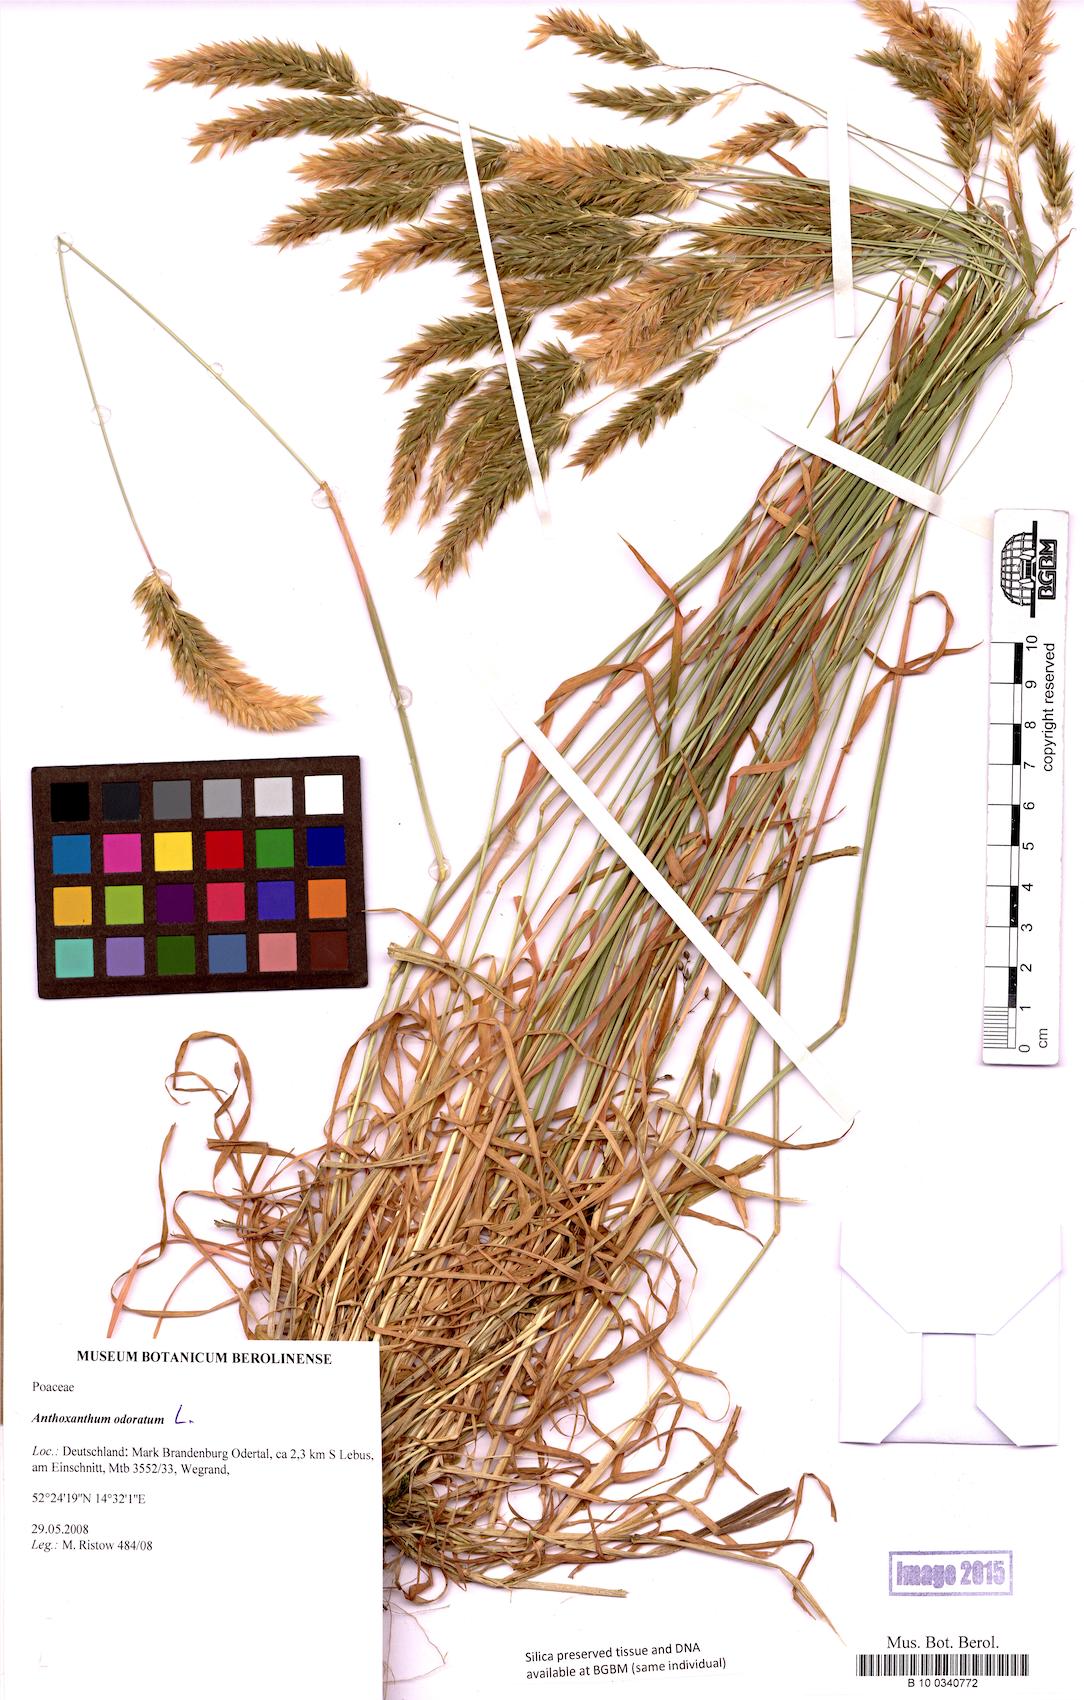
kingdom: Plantae
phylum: Tracheophyta
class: Liliopsida
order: Poales
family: Poaceae
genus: Anthoxanthum
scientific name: Anthoxanthum odoratum
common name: Sweet vernalgrass
